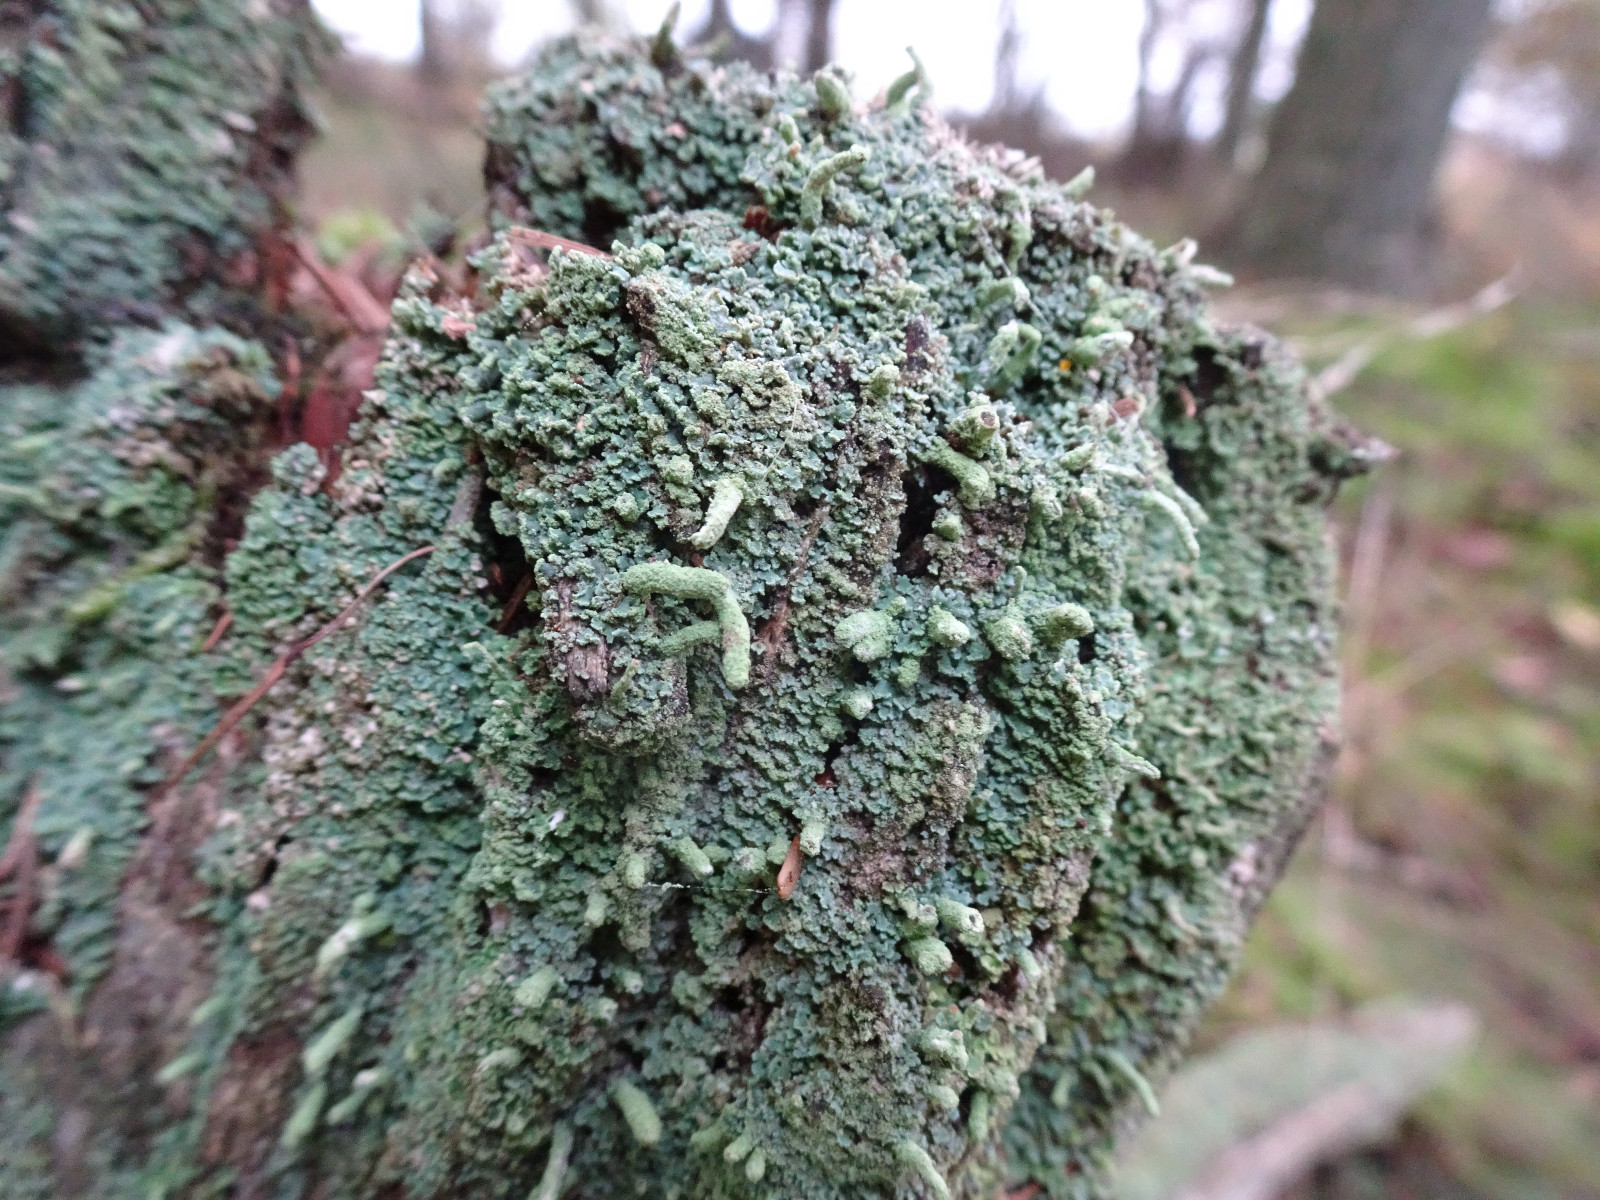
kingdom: Fungi
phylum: Ascomycota
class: Lecanoromycetes
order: Lecanorales
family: Cladoniaceae
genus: Cladonia
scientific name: Cladonia coniocraea
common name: træfods-bægerlav
